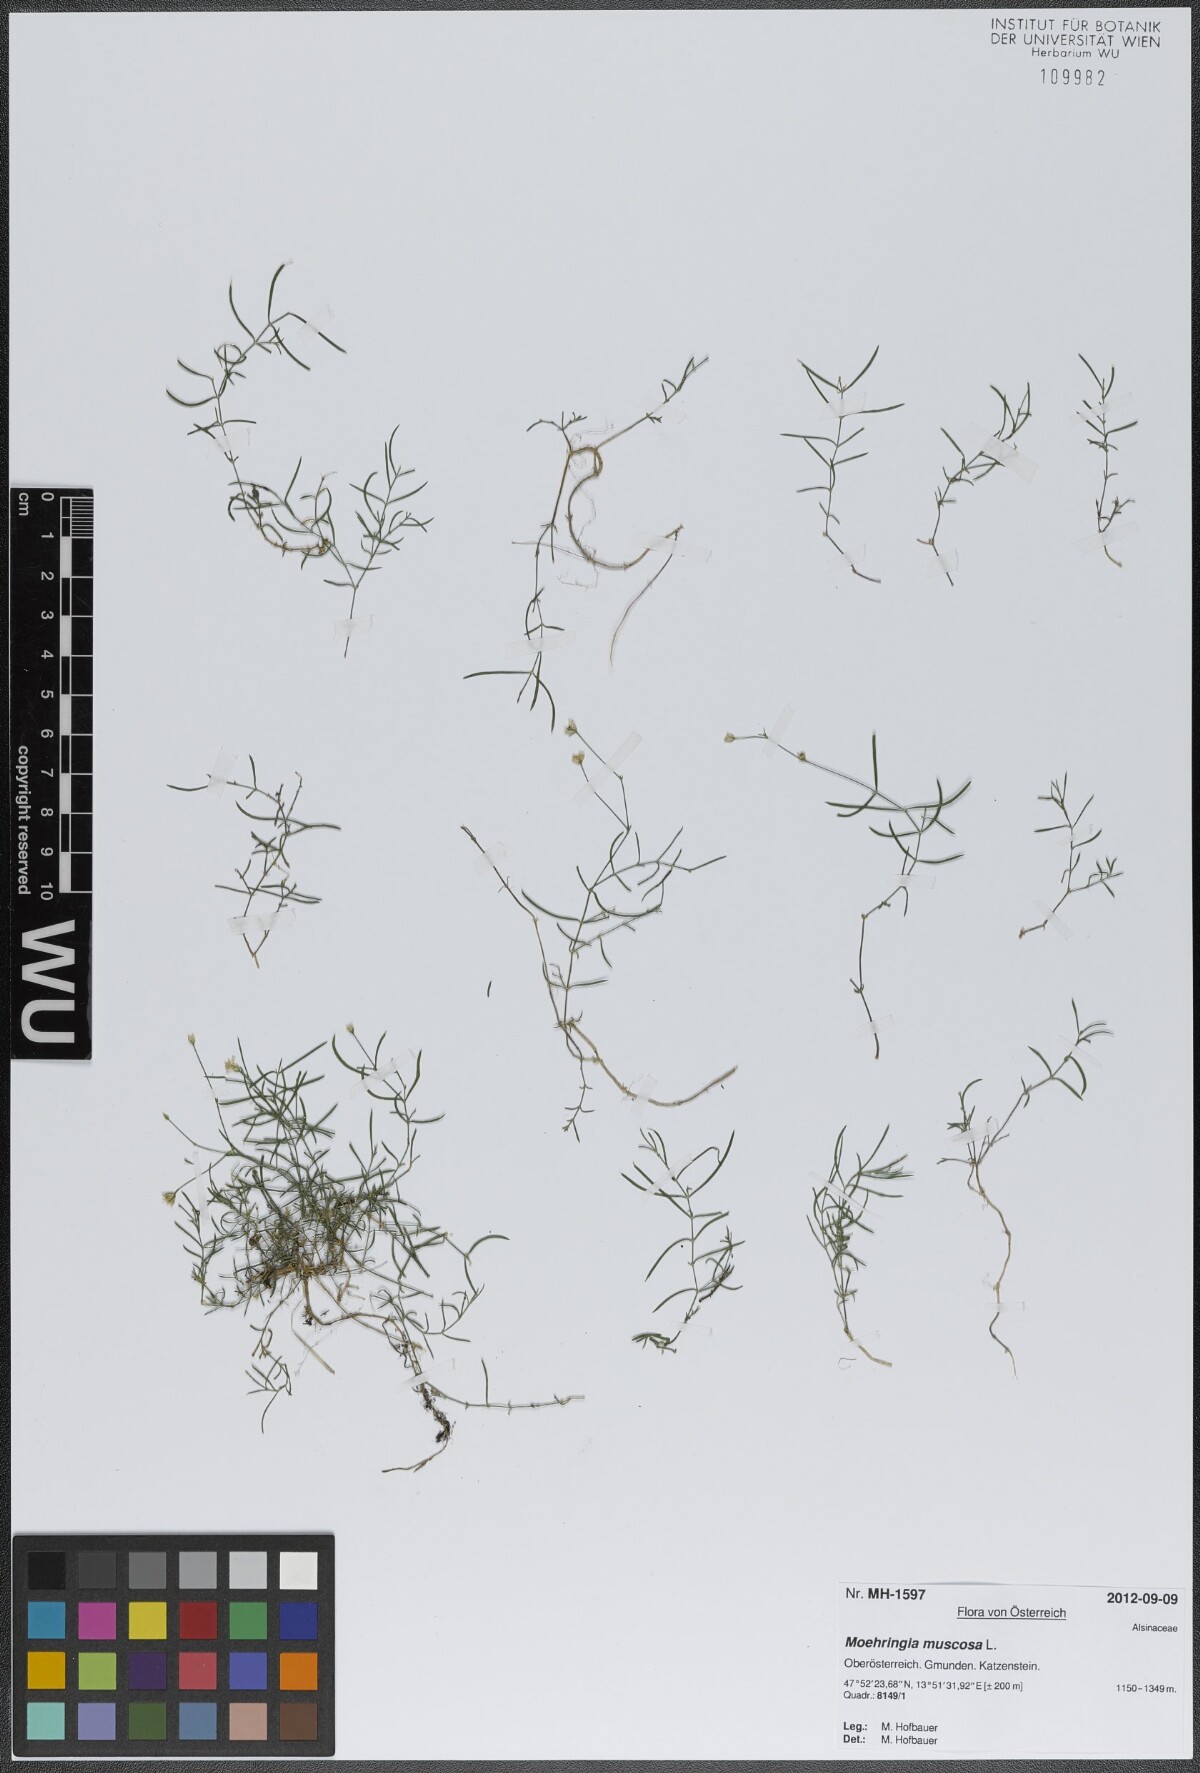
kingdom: Plantae
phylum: Tracheophyta
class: Magnoliopsida
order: Caryophyllales
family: Caryophyllaceae
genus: Moehringia
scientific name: Moehringia muscosa
